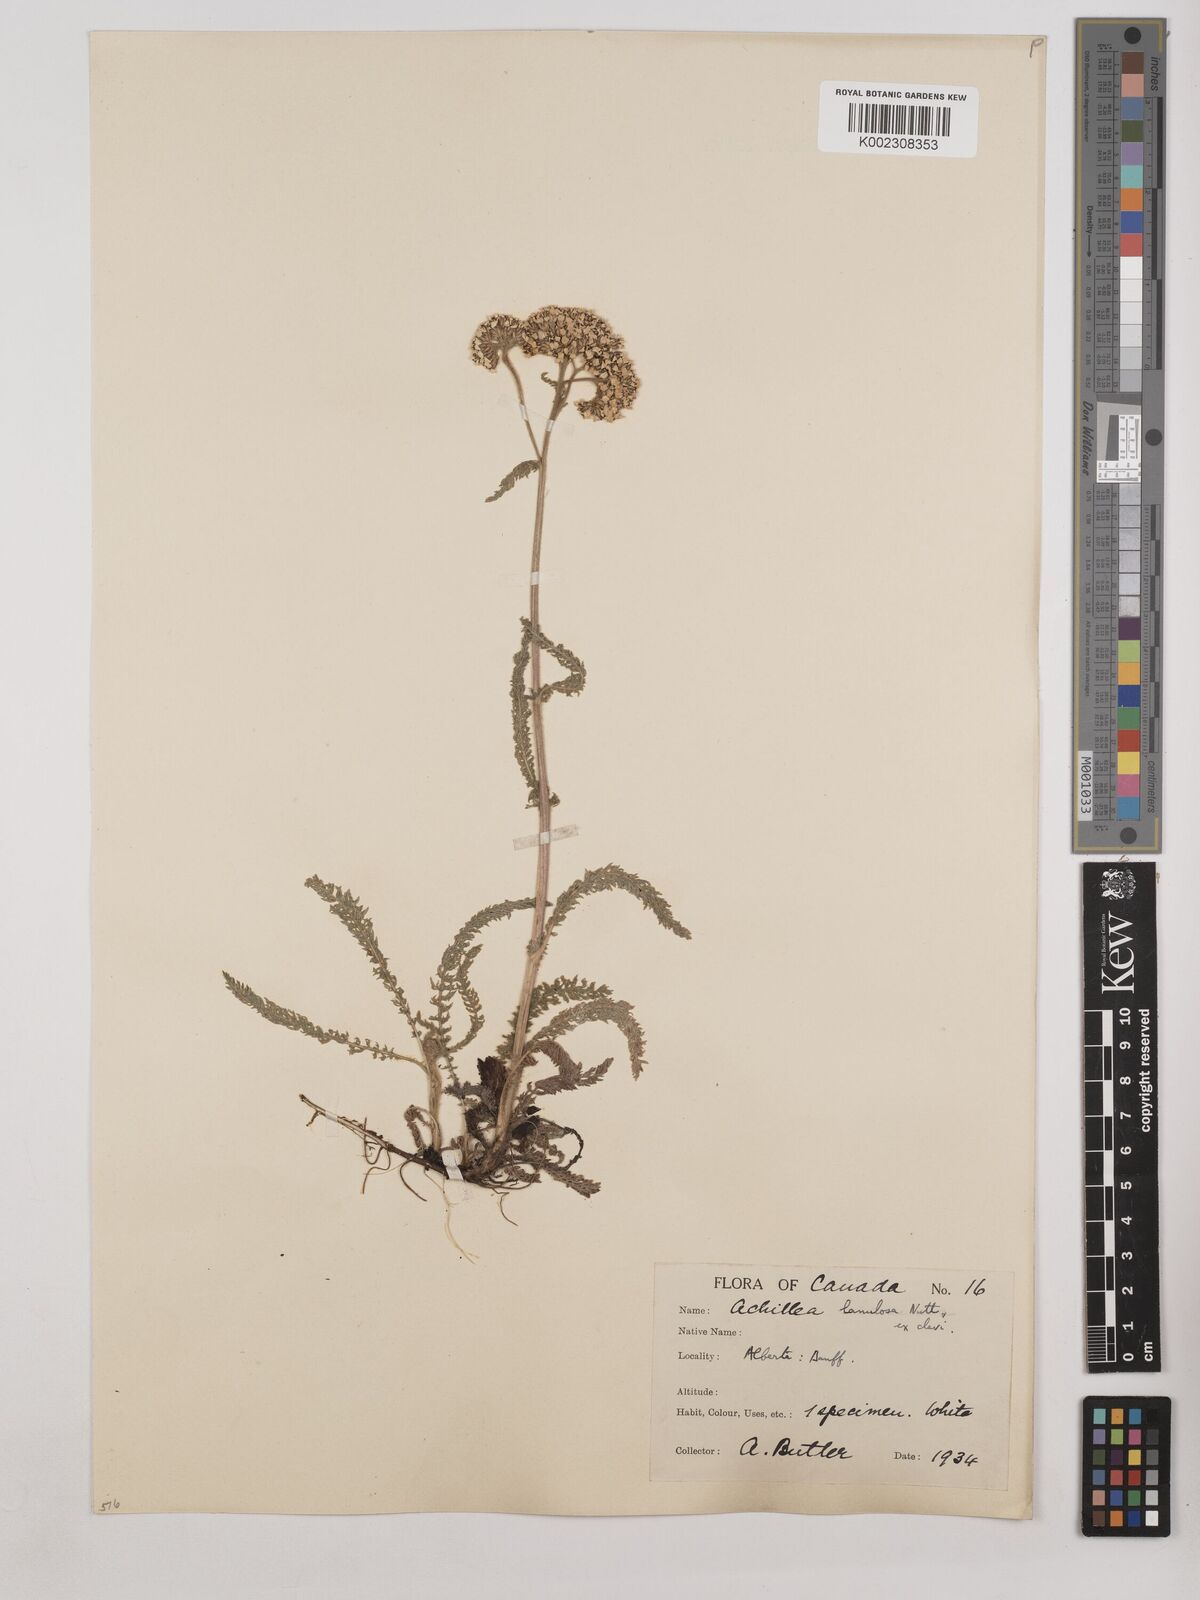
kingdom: Plantae
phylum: Tracheophyta
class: Magnoliopsida
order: Asterales
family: Asteraceae
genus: Achillea
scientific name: Achillea millefolium
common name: Yarrow
